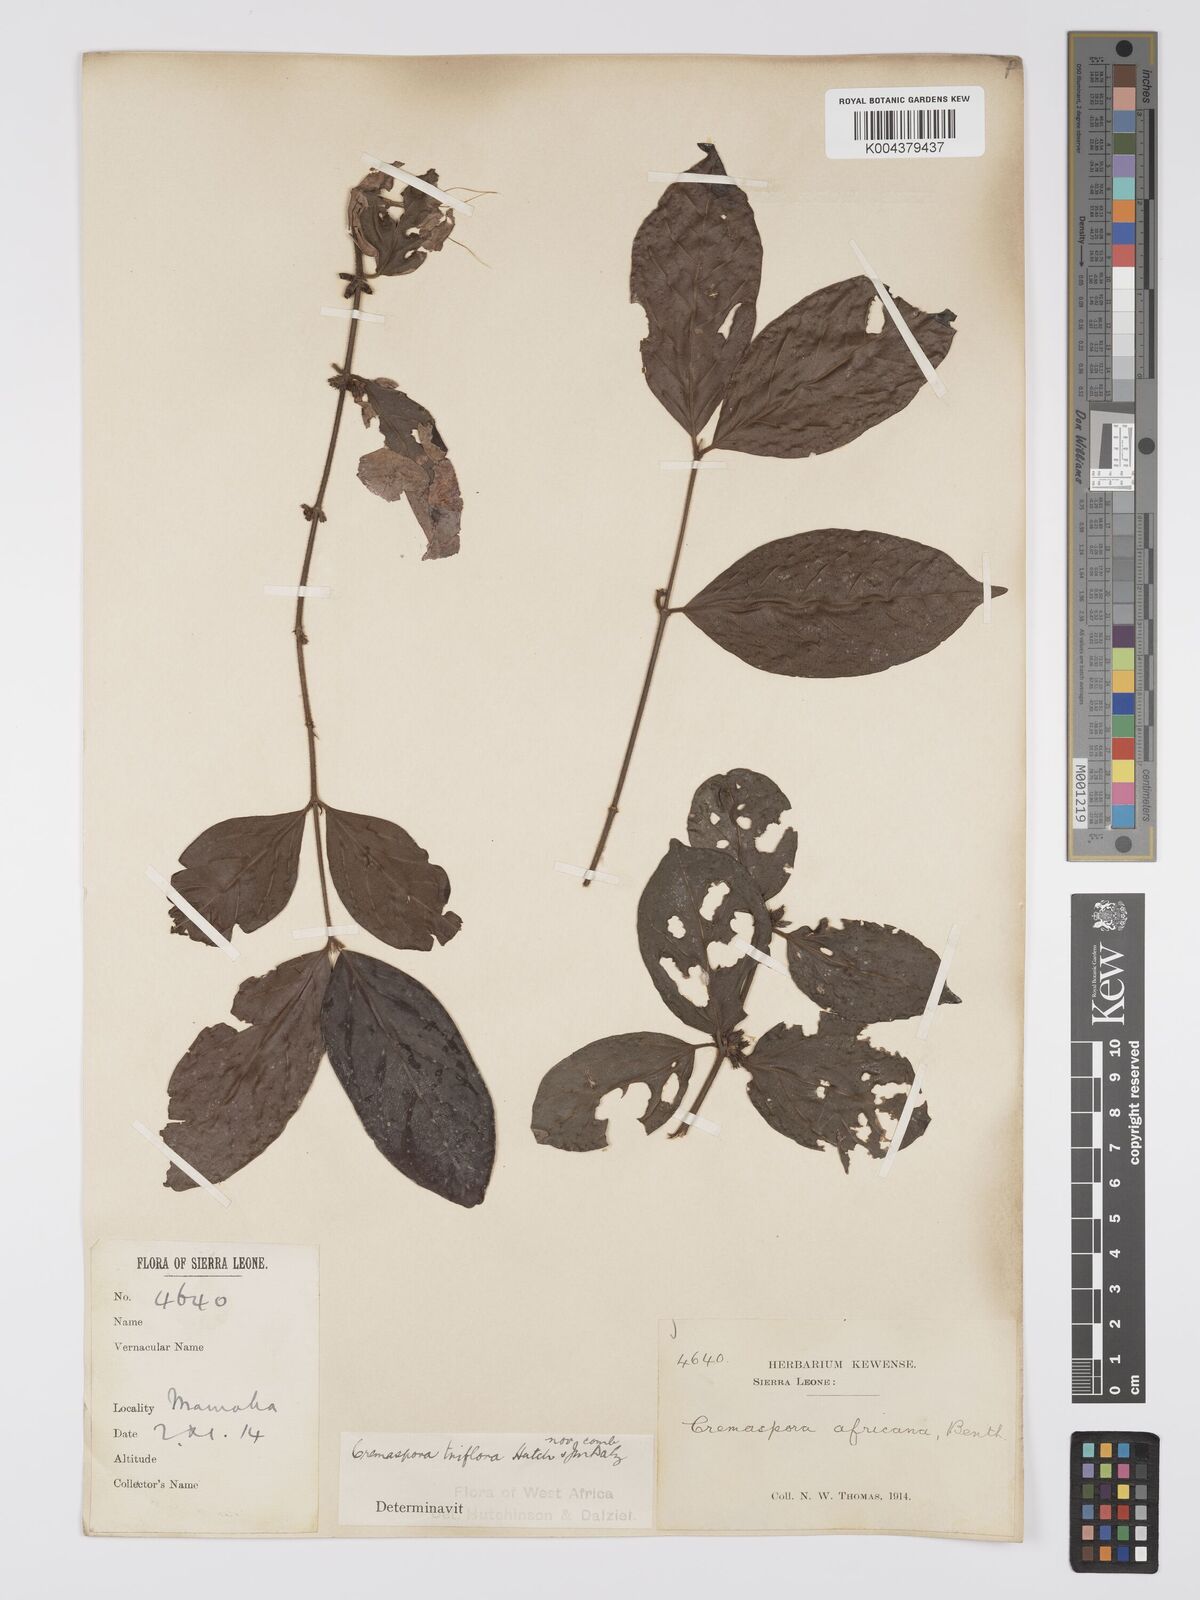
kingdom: Plantae
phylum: Tracheophyta
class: Magnoliopsida
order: Gentianales
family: Rubiaceae
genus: Cremaspora
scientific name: Cremaspora triflora
